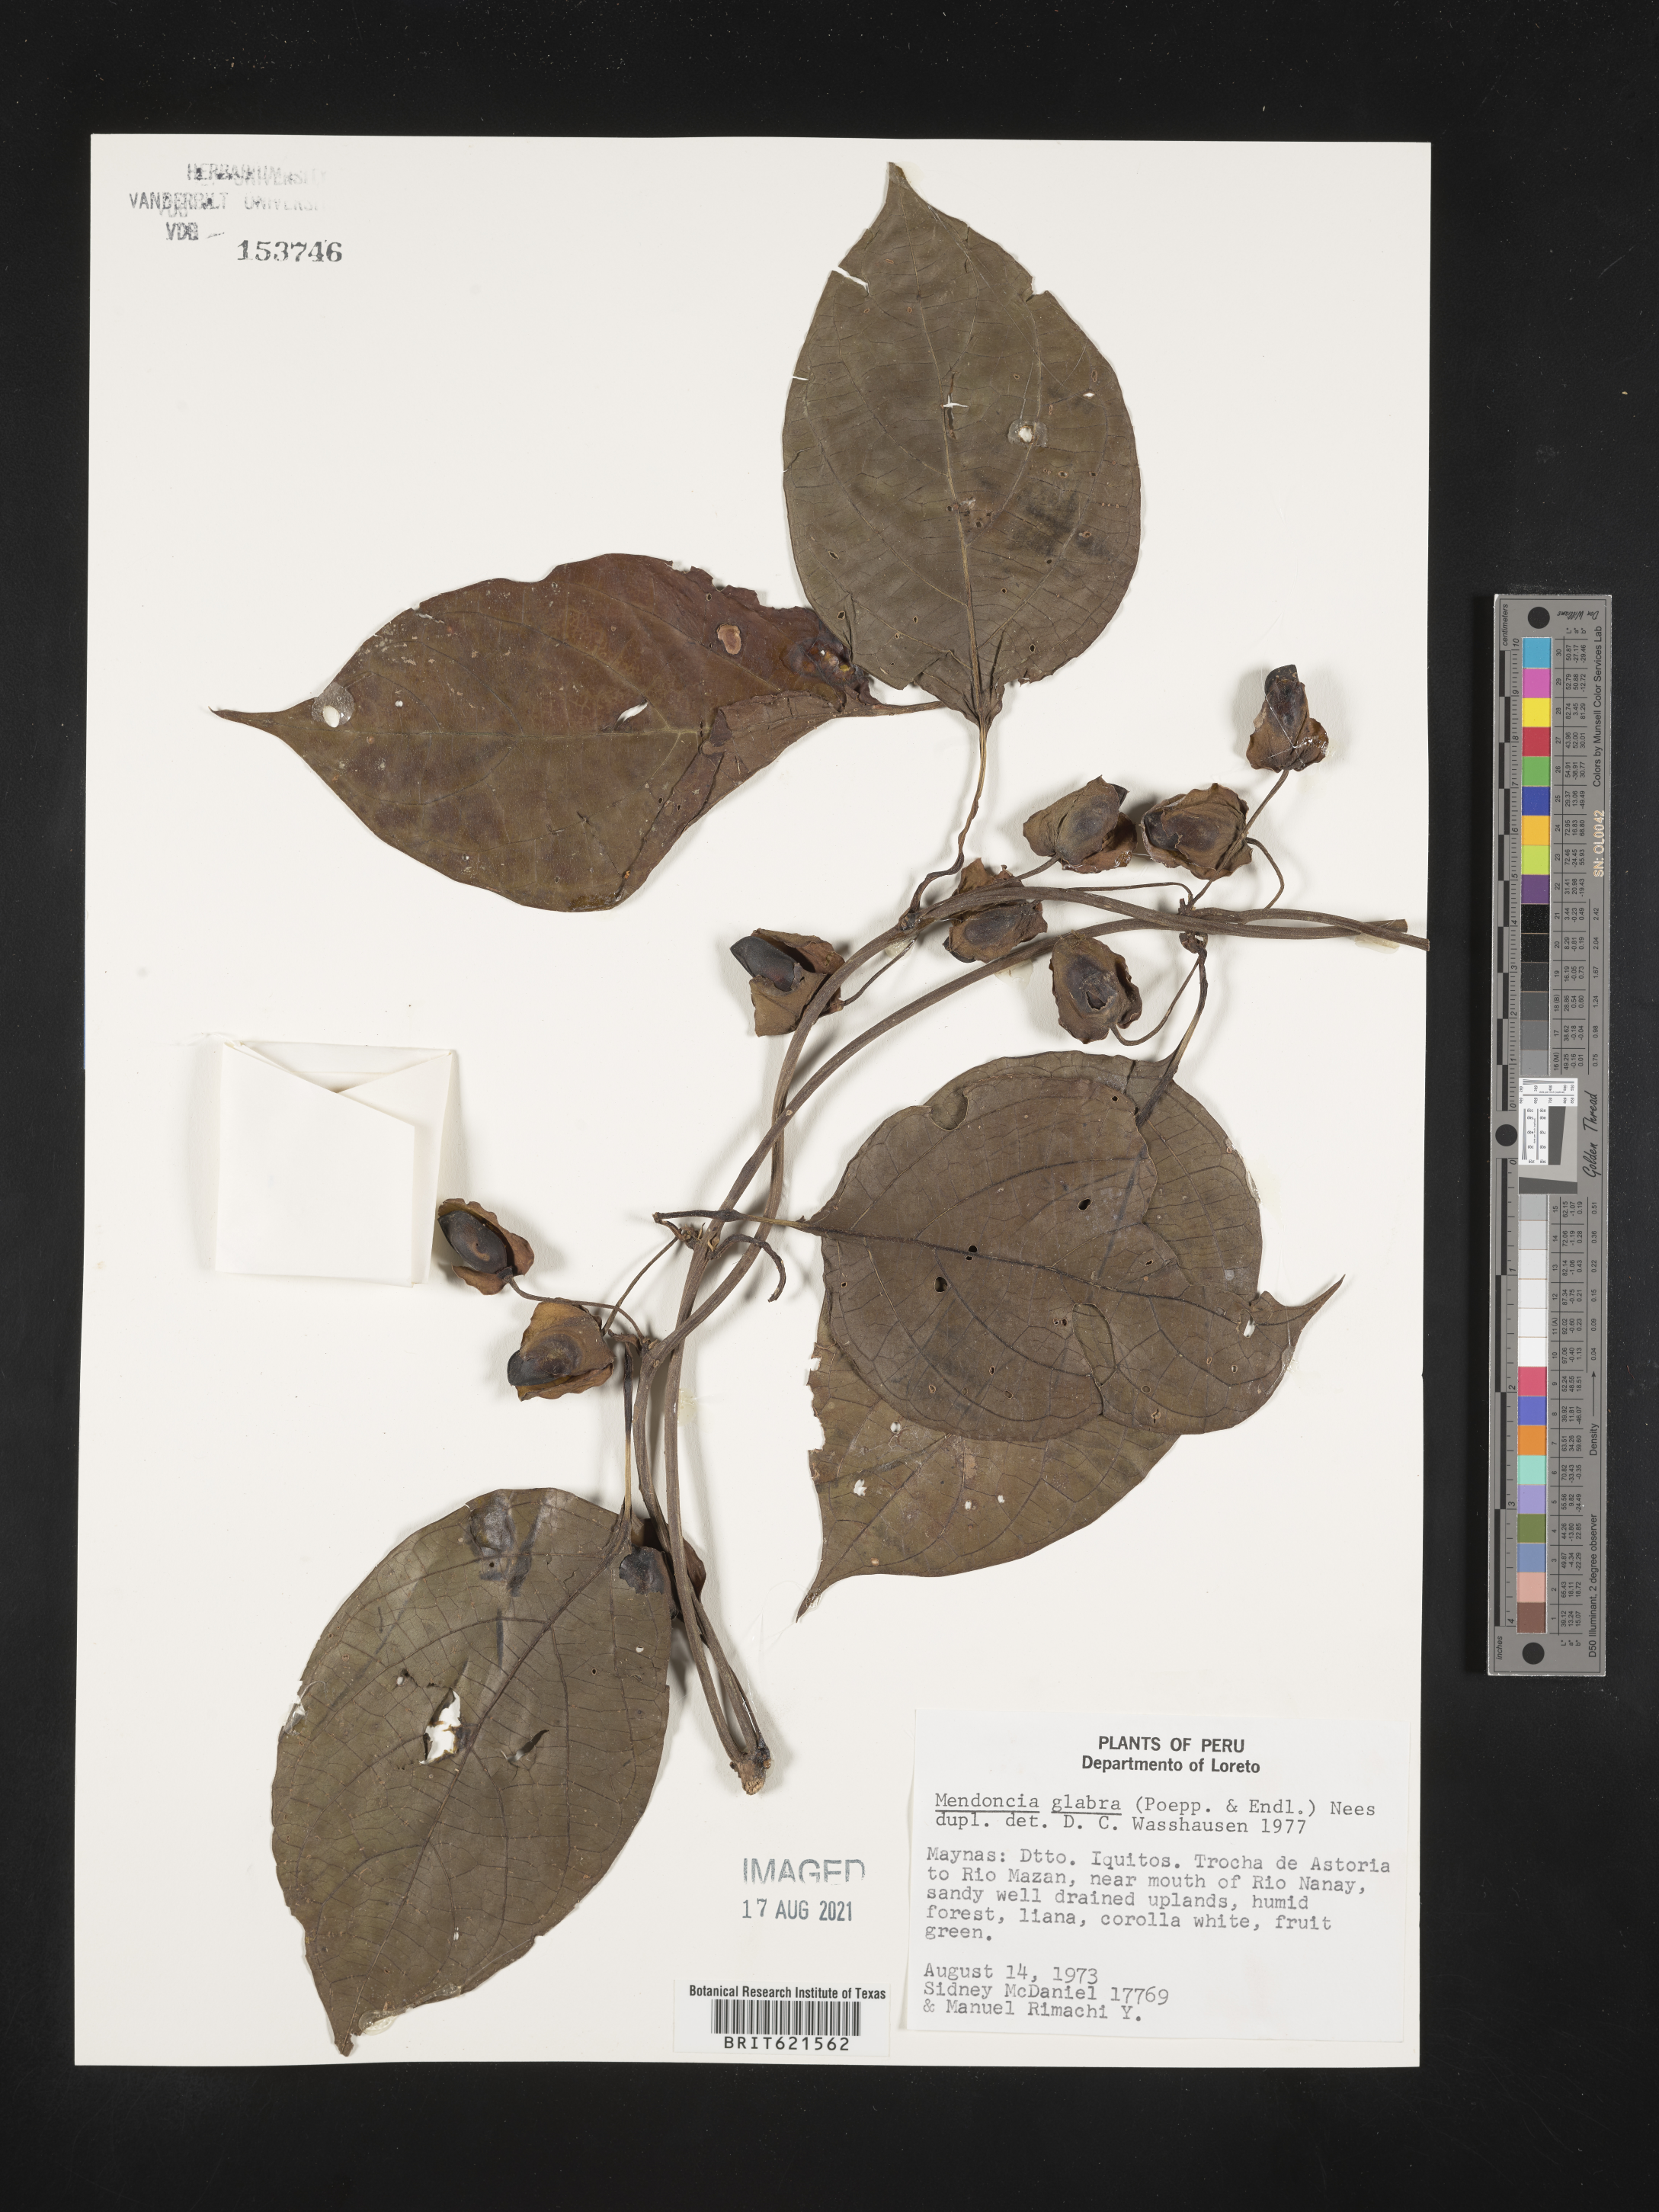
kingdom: Plantae
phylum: Tracheophyta
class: Magnoliopsida
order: Lamiales
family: Acanthaceae
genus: Mendoncia
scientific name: Mendoncia glabra
